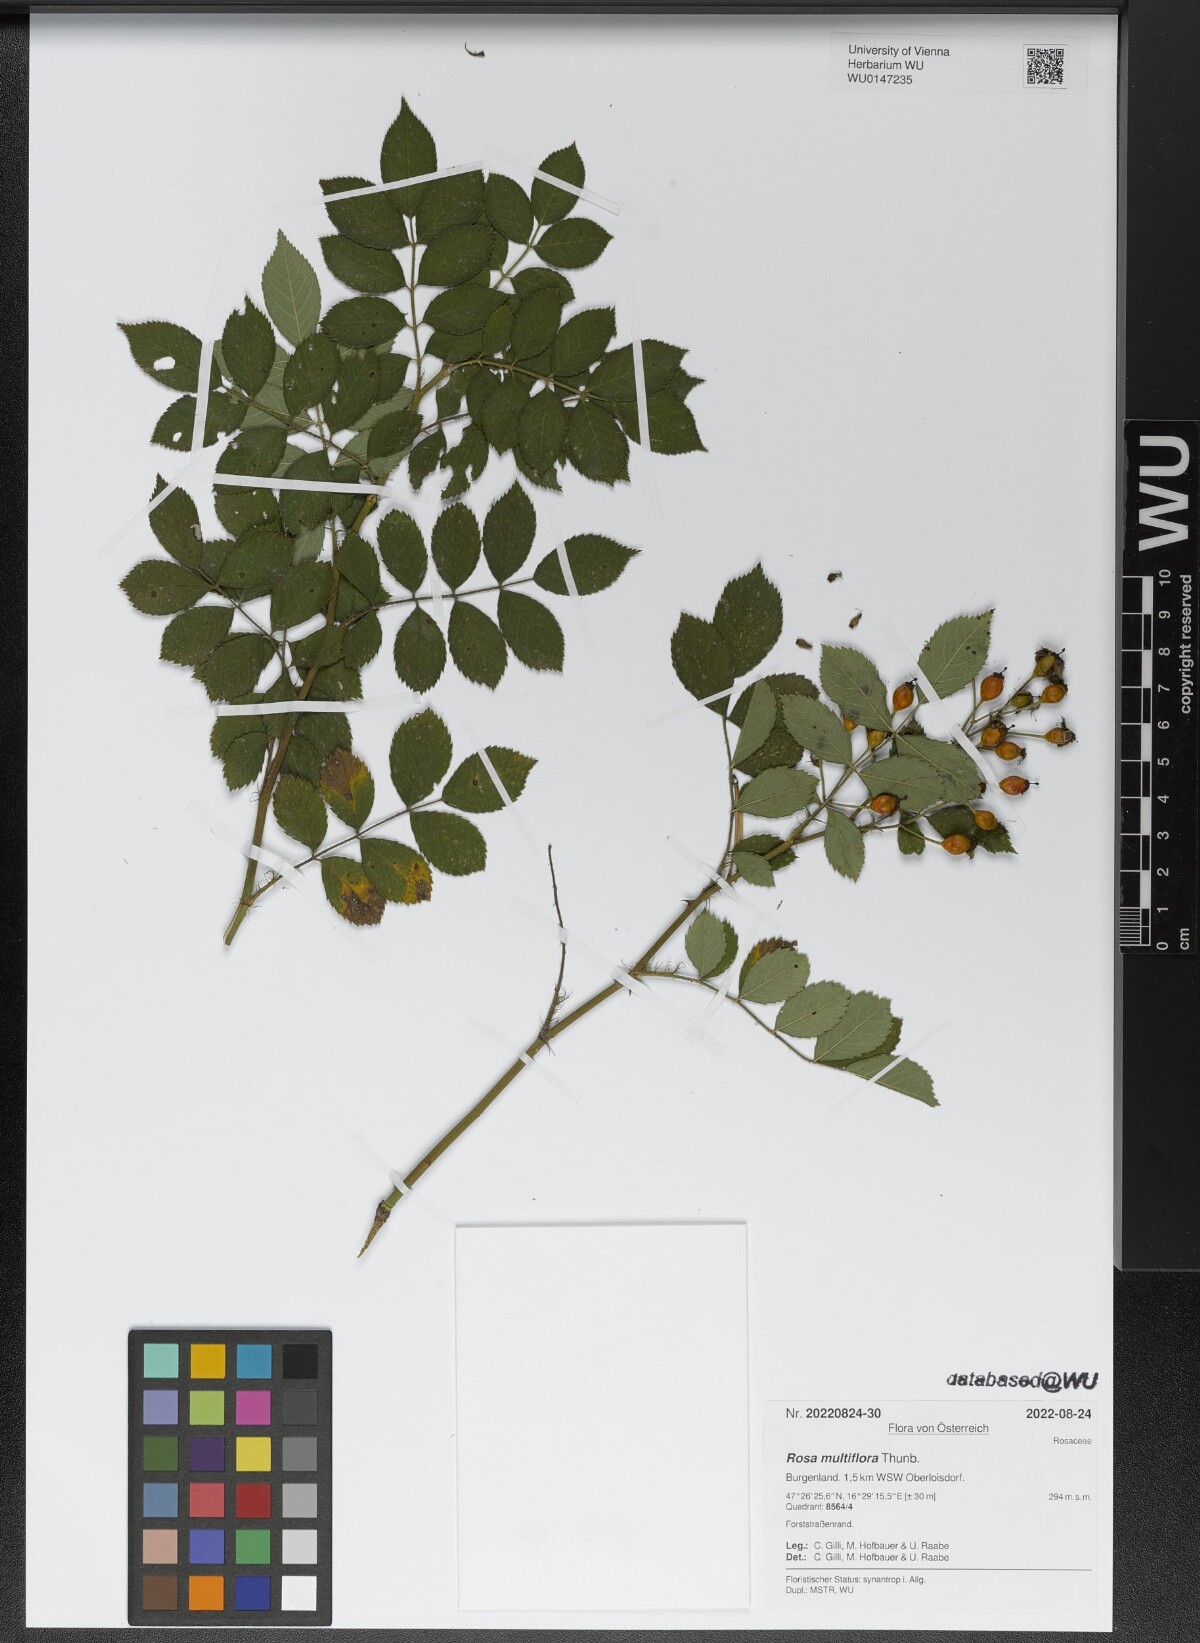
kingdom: Plantae
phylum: Tracheophyta
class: Magnoliopsida
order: Rosales
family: Rosaceae
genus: Rosa
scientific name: Rosa multiflora
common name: Multiflora rose
